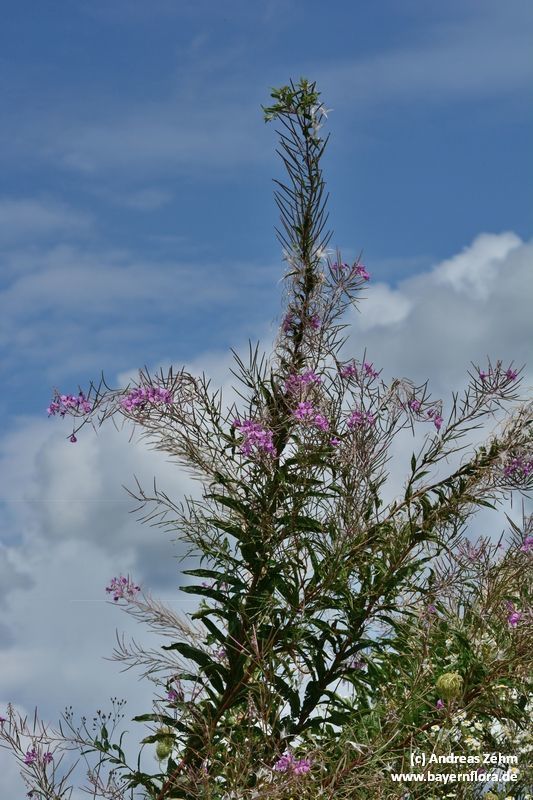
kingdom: Plantae
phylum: Tracheophyta
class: Magnoliopsida
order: Myrtales
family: Onagraceae
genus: Chamaenerion
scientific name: Chamaenerion angustifolium
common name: Fireweed
